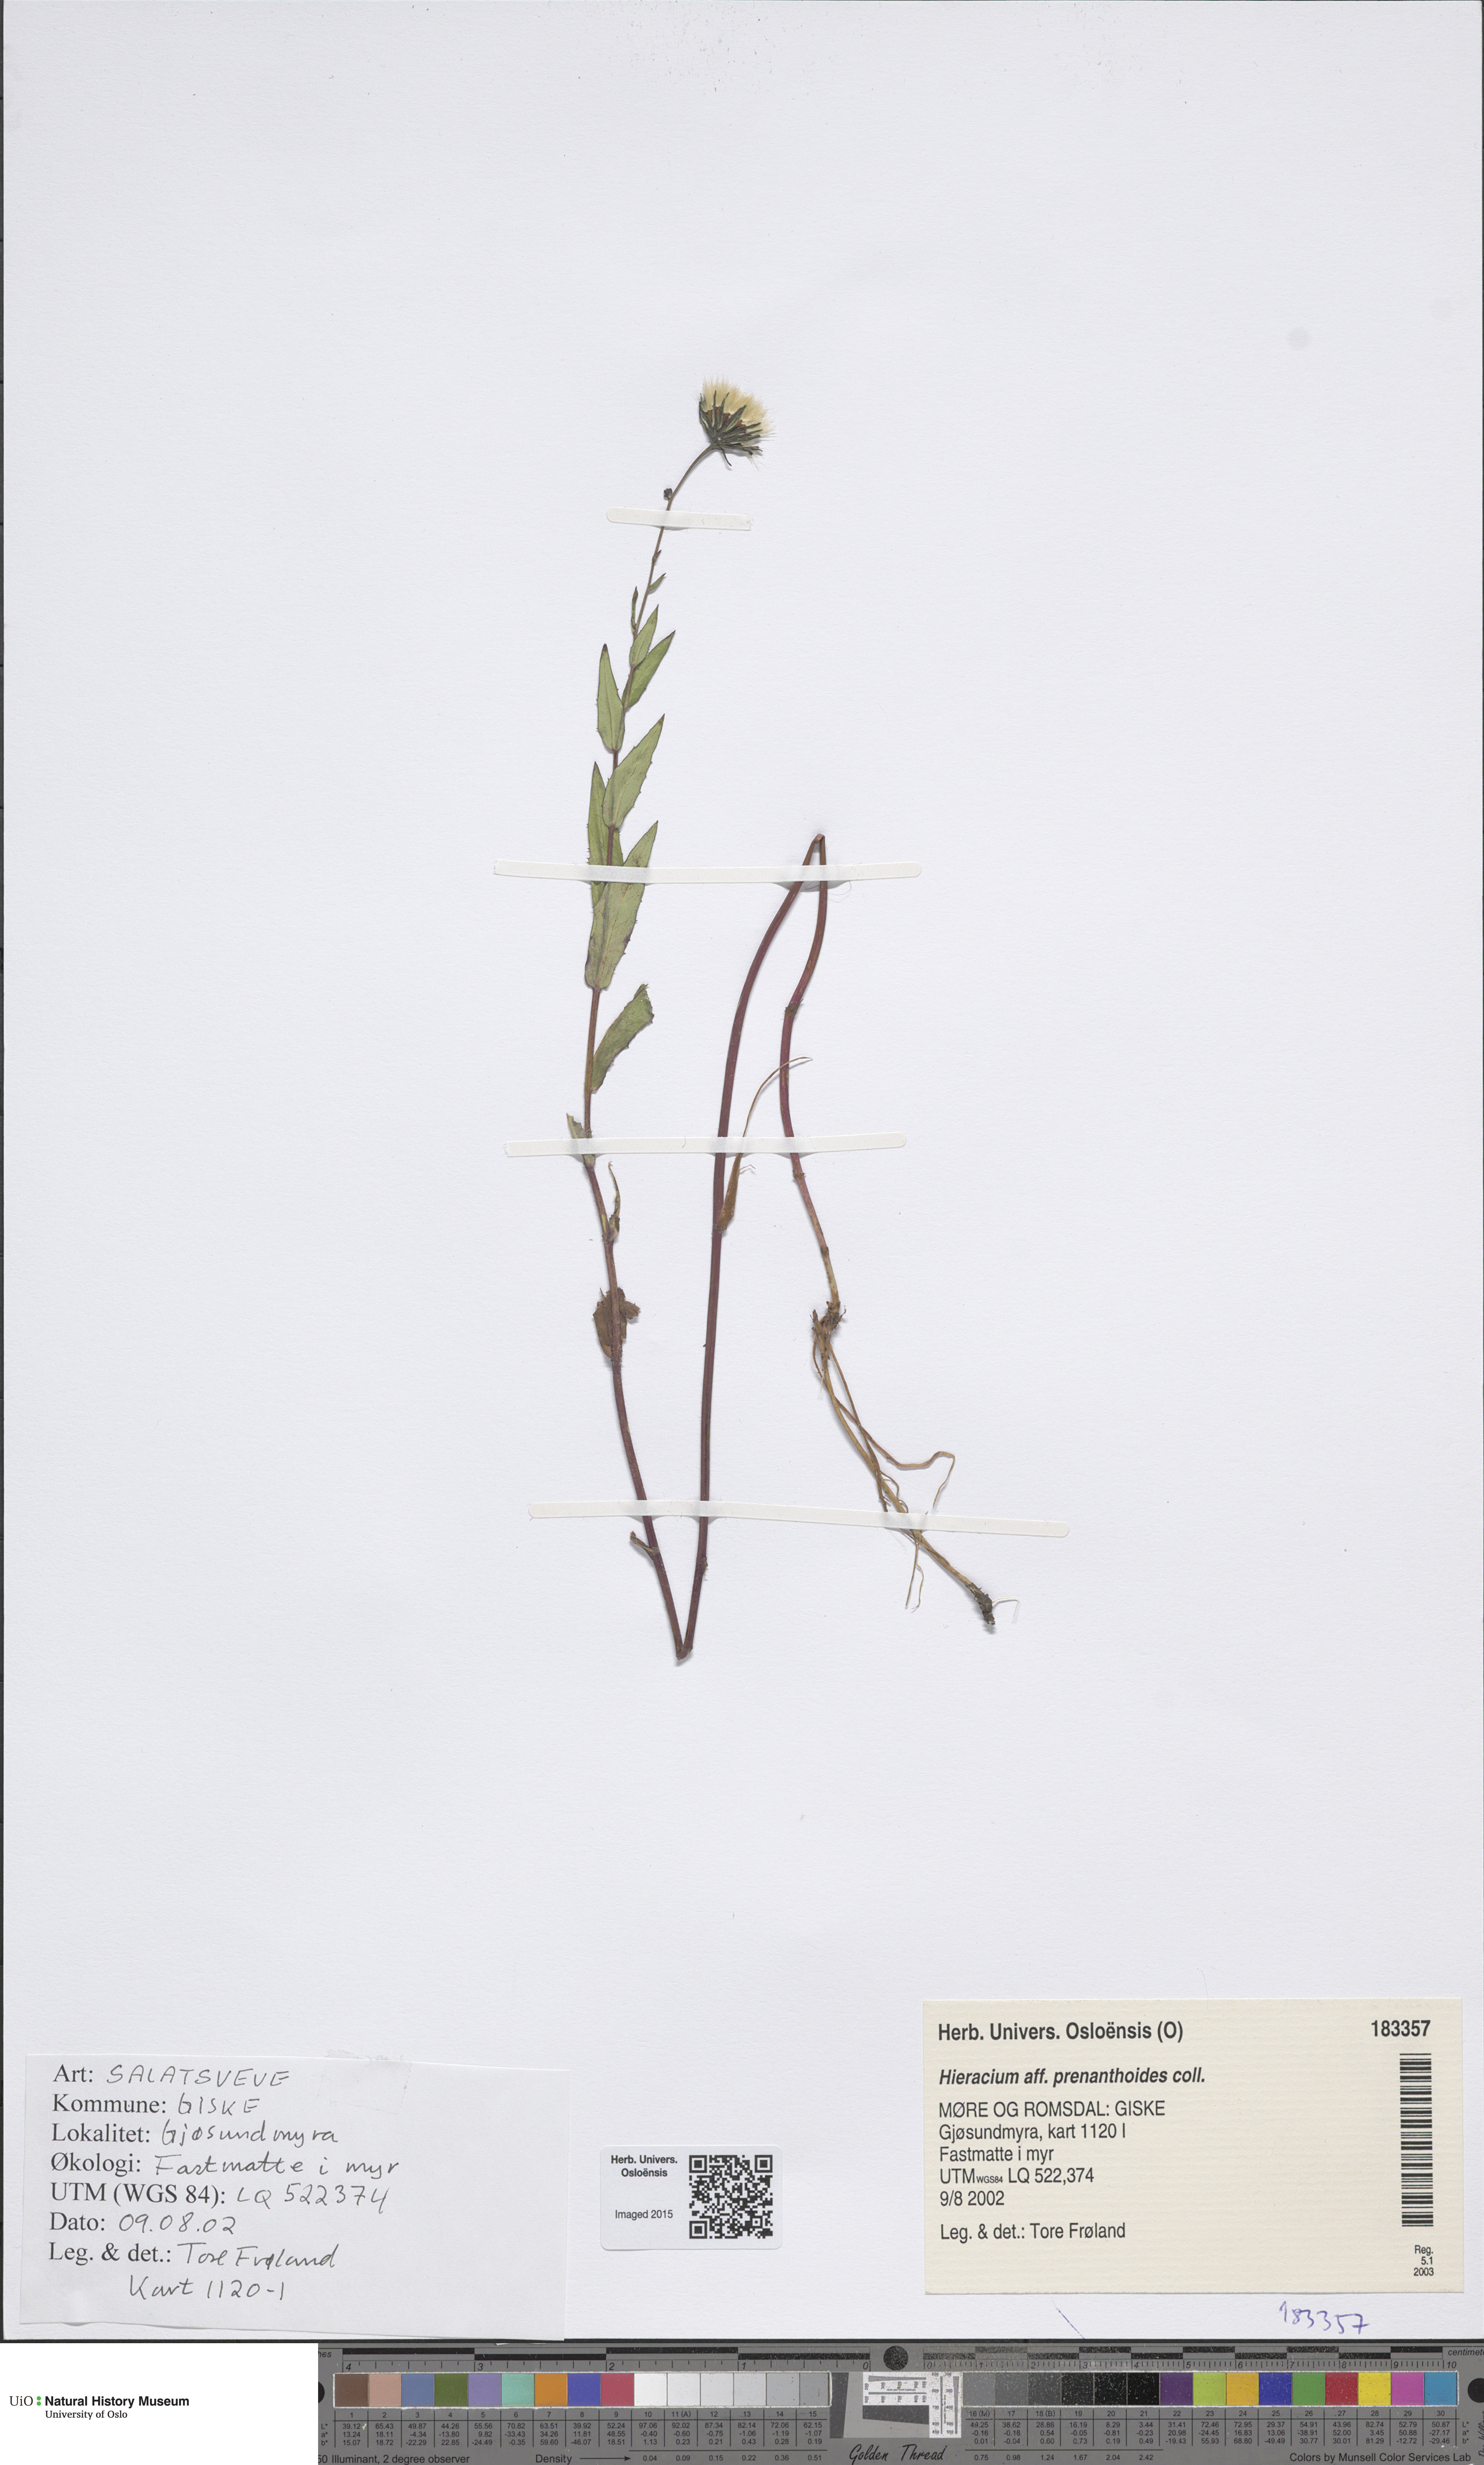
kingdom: Plantae
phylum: Tracheophyta
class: Magnoliopsida
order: Asterales
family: Asteraceae
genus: Hieracium
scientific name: Hieracium prenanthoides
